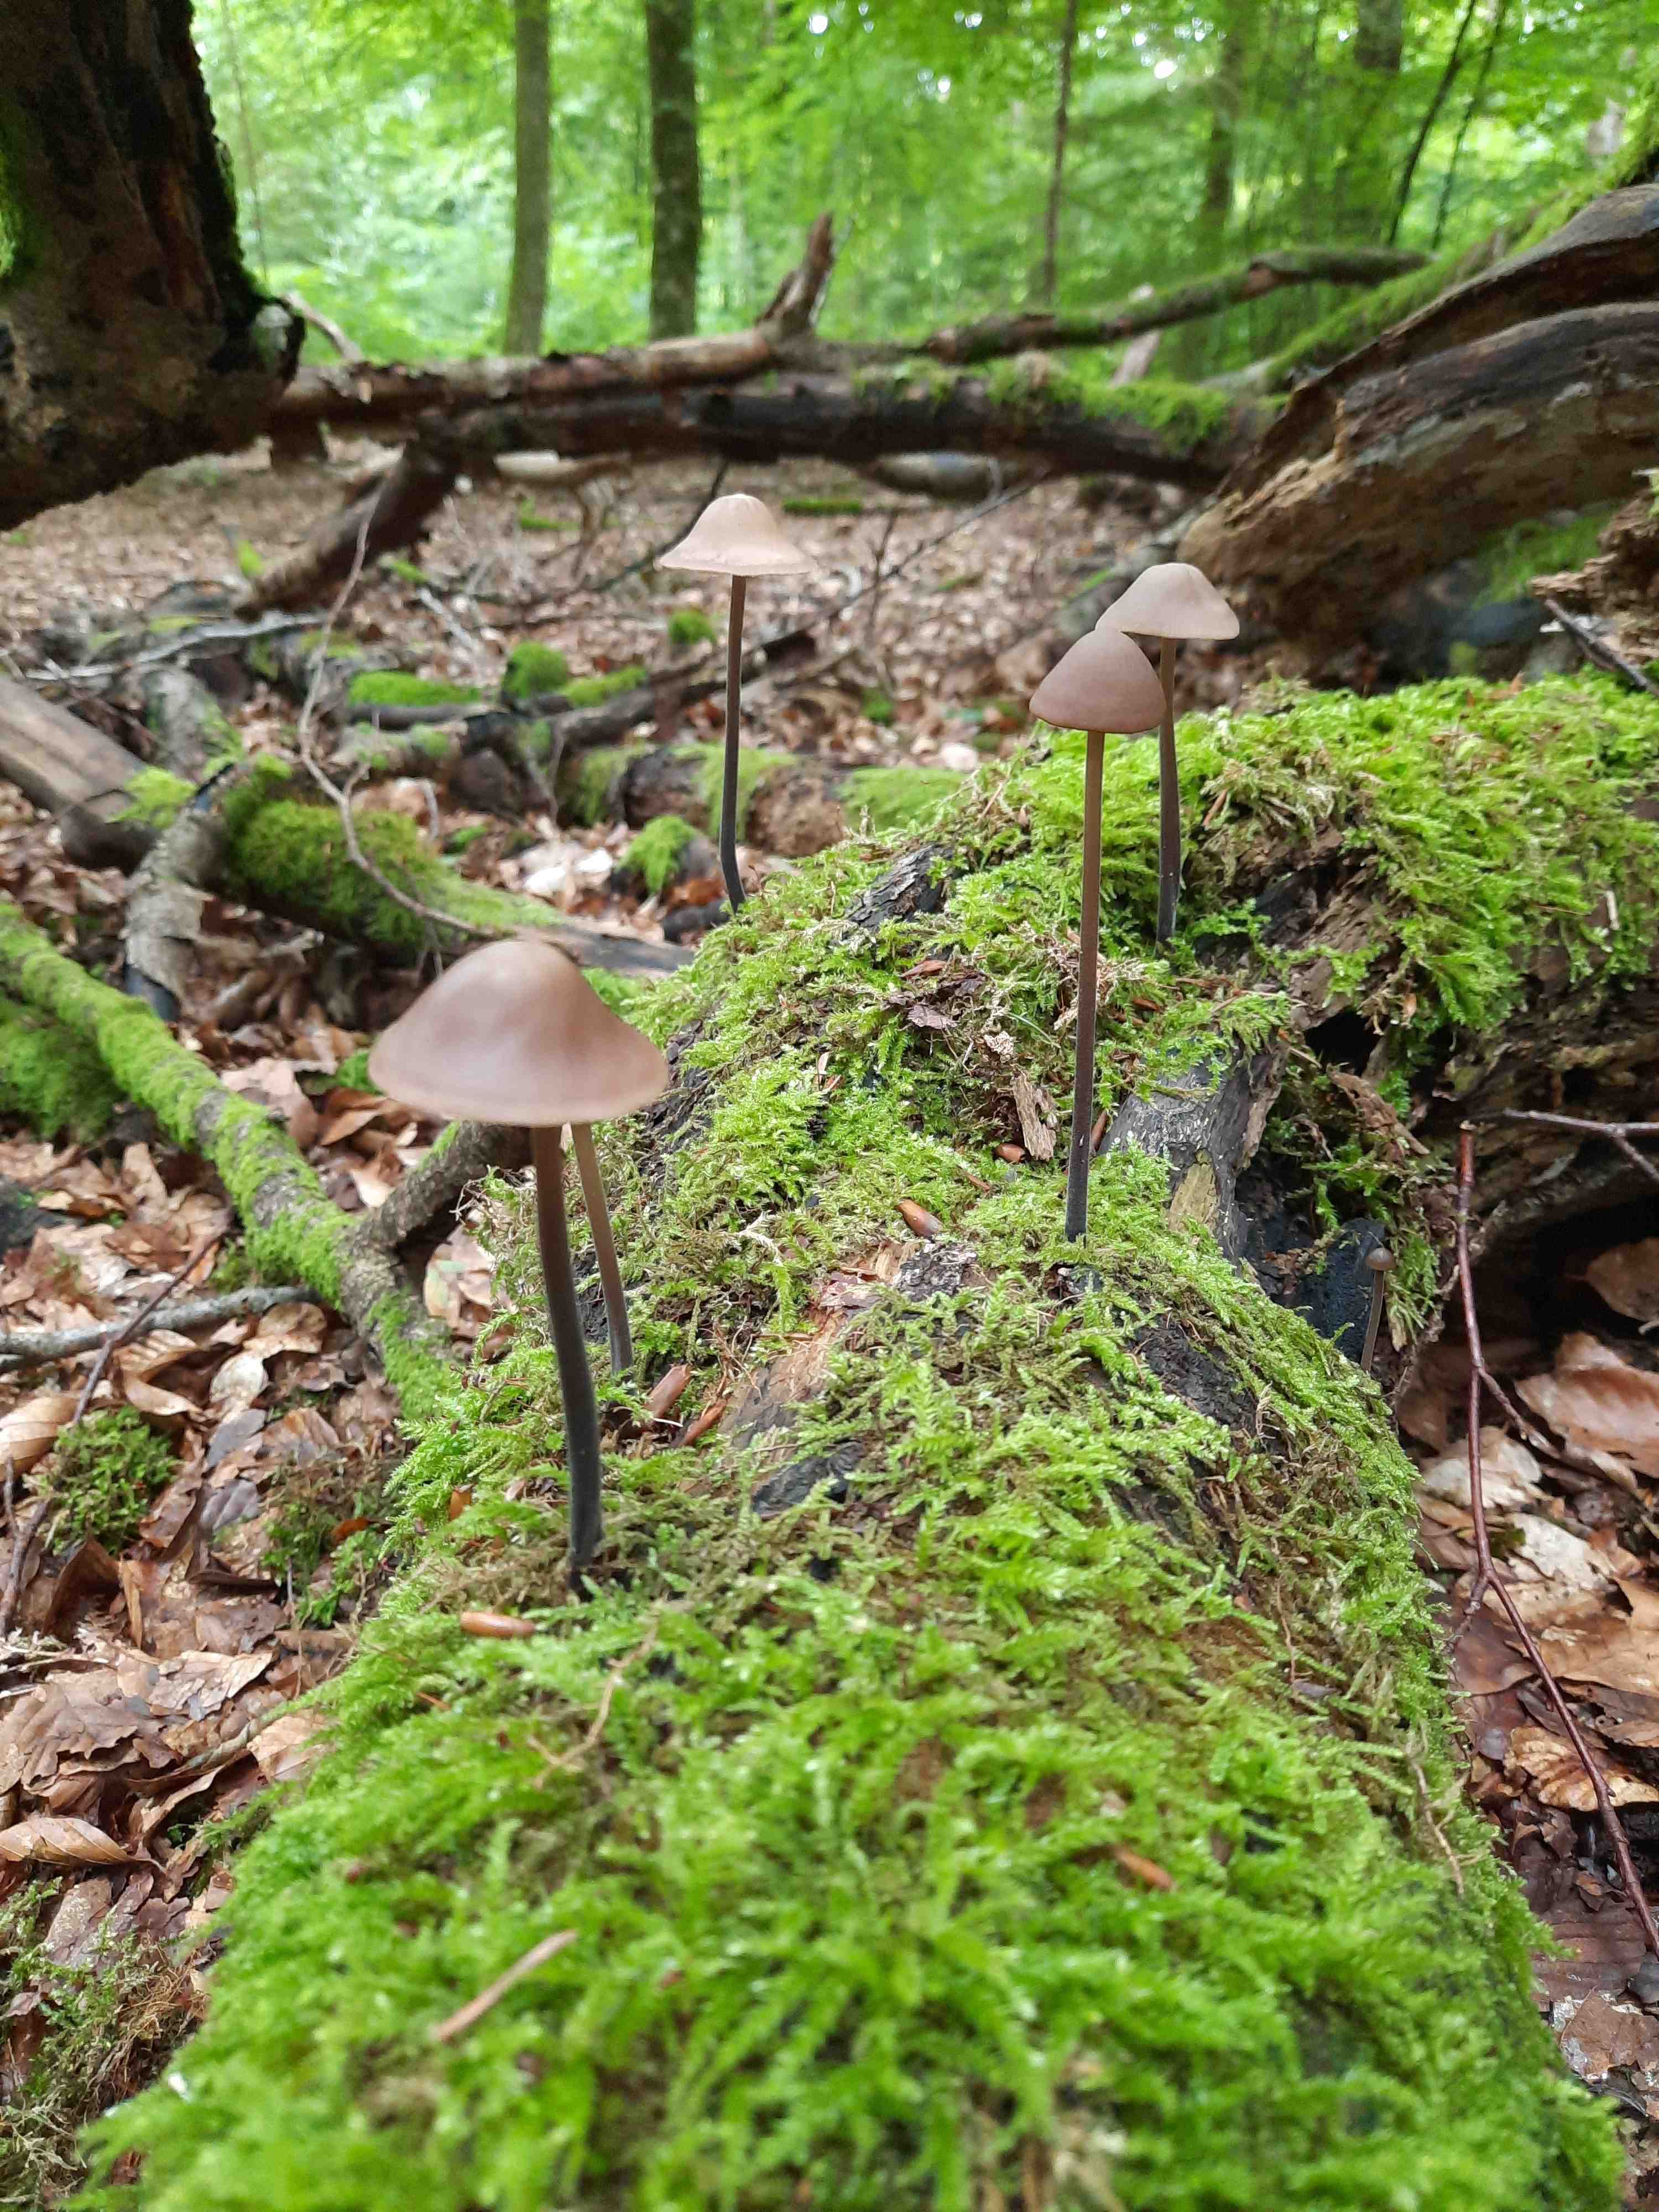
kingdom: Fungi
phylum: Basidiomycota
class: Agaricomycetes
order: Agaricales
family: Omphalotaceae
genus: Mycetinis
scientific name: Mycetinis alliaceus
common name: stor løghat
